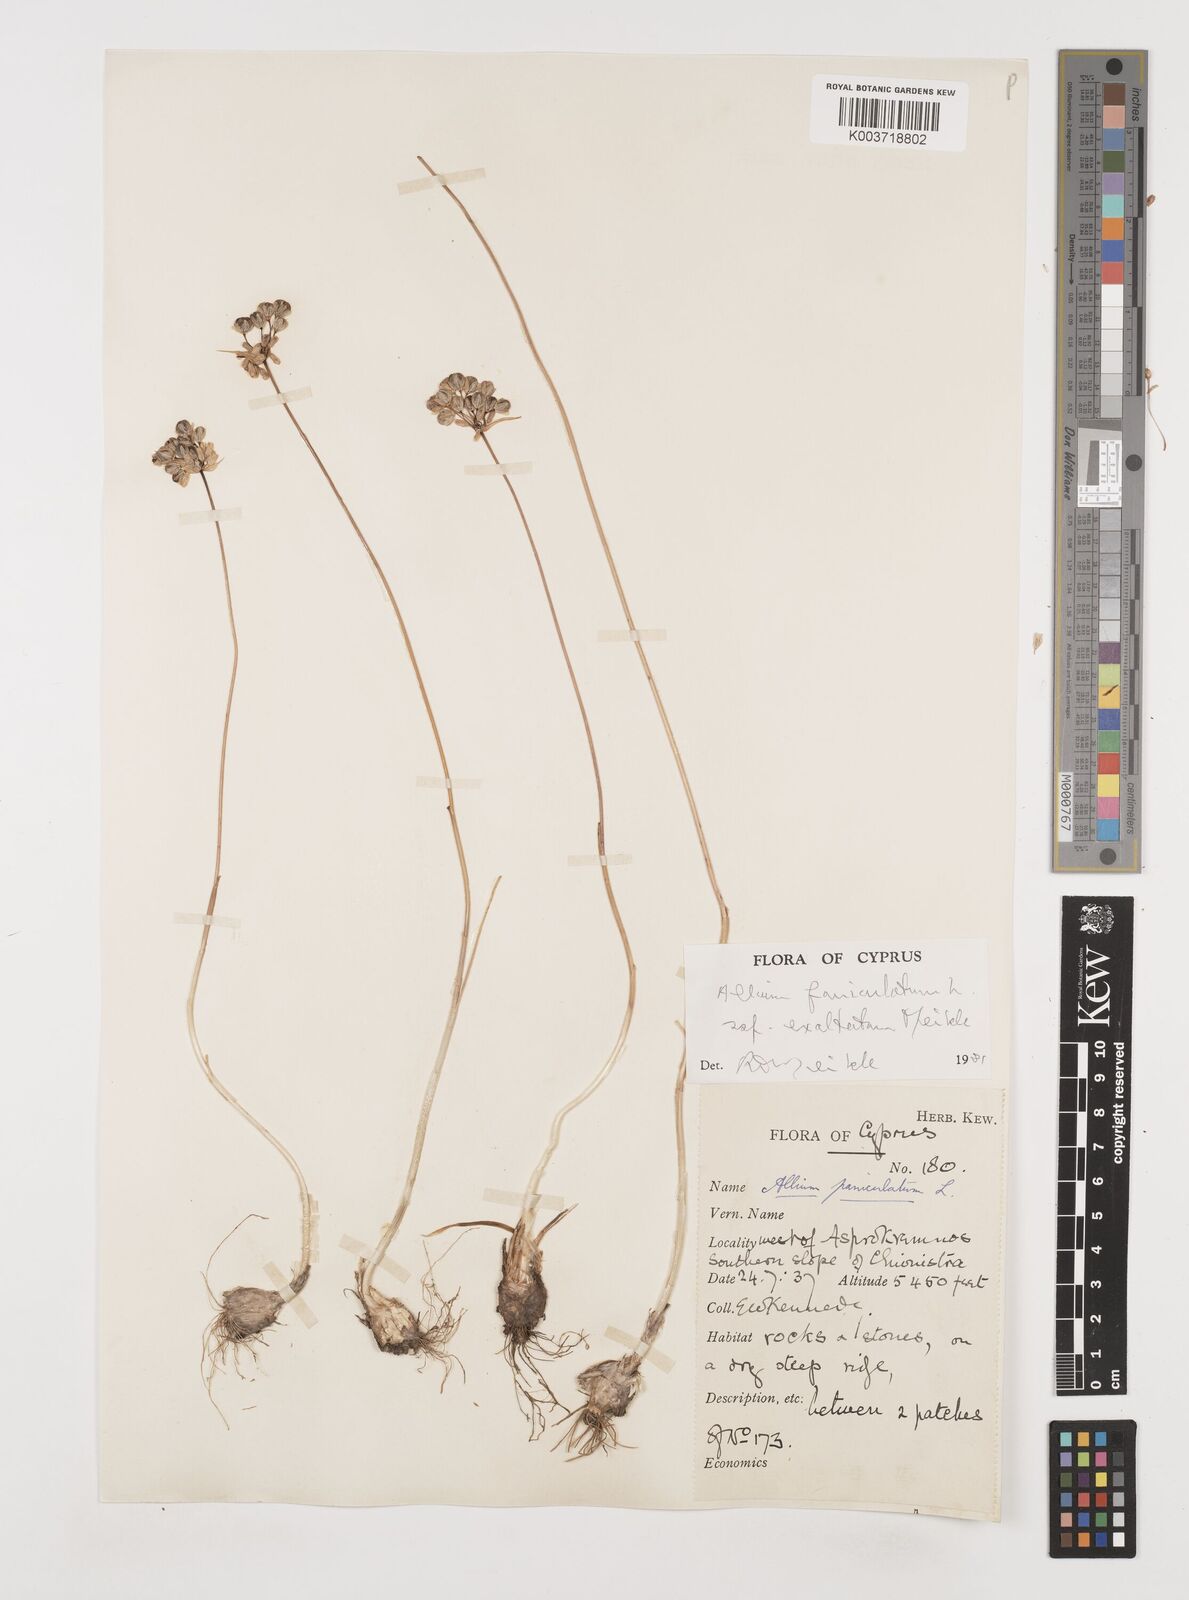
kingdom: Plantae
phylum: Tracheophyta
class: Liliopsida
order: Asparagales
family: Amaryllidaceae
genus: Allium
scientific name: Allium paniculatum
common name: Pale garlic
